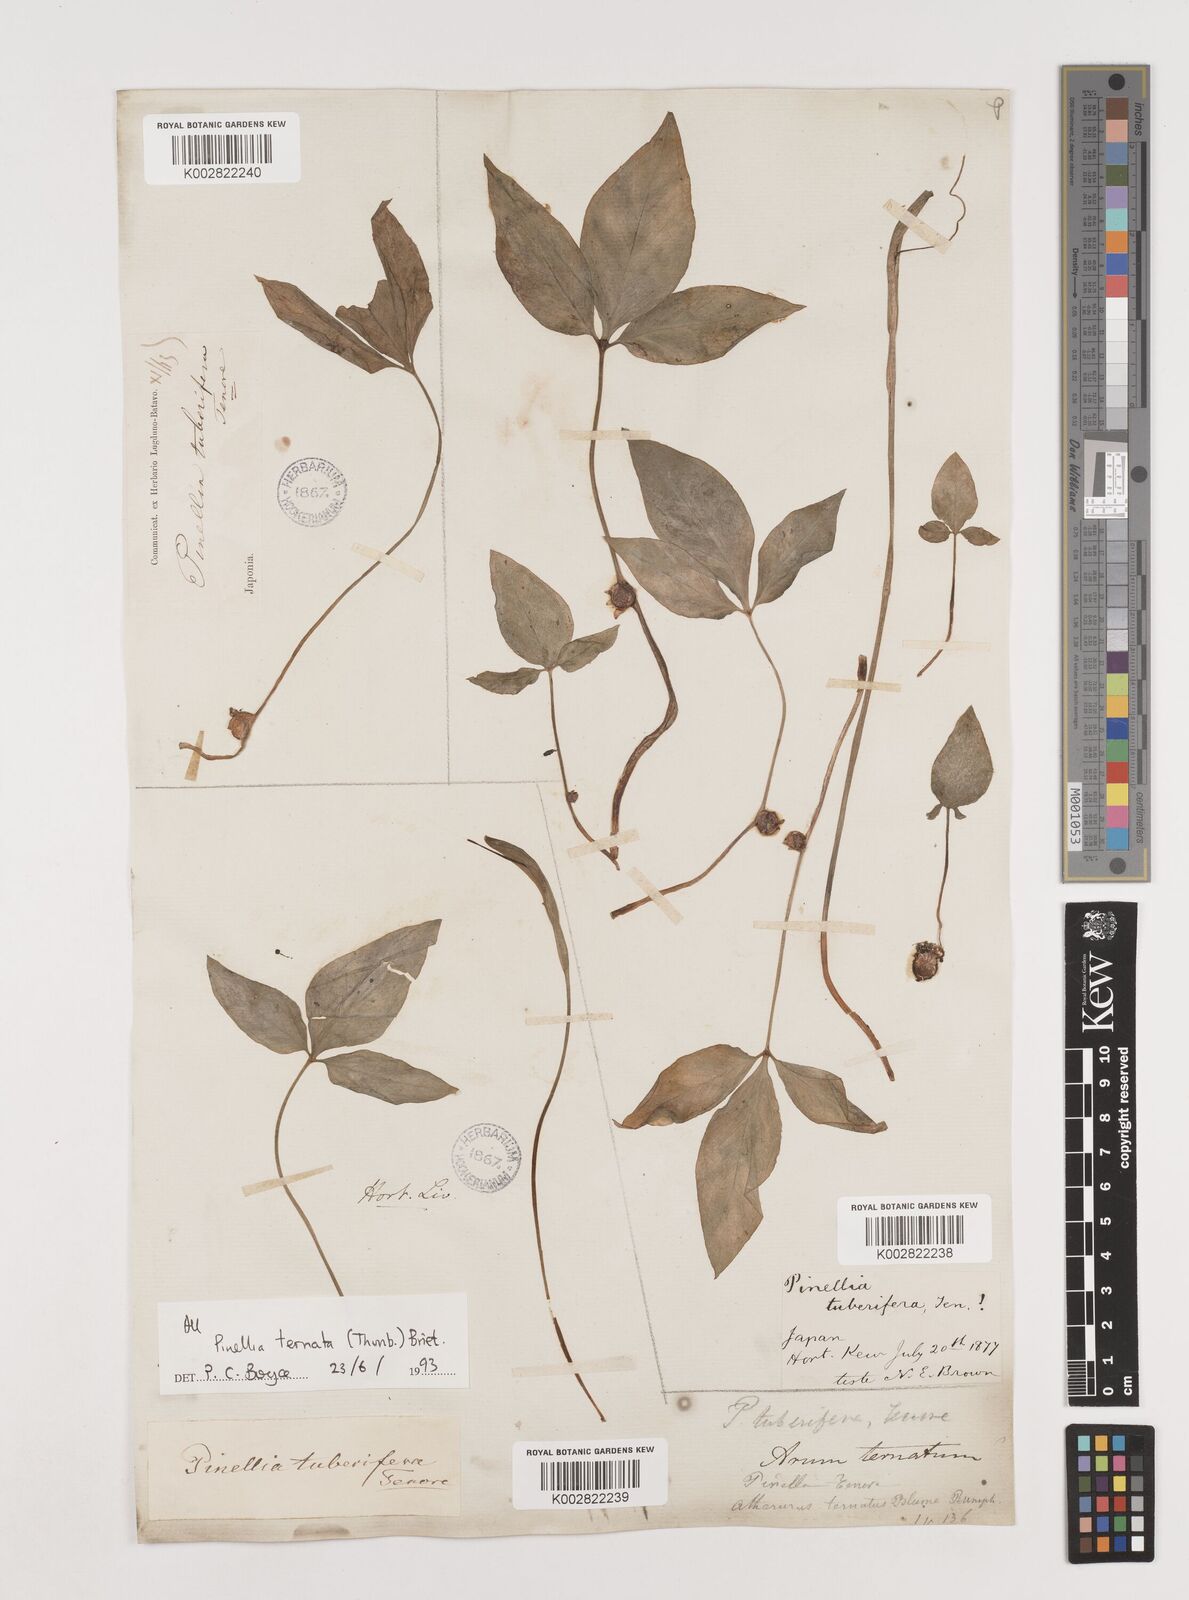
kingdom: Plantae
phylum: Tracheophyta
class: Liliopsida
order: Alismatales
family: Araceae
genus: Pinellia
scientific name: Pinellia ternata
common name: Pinellia
